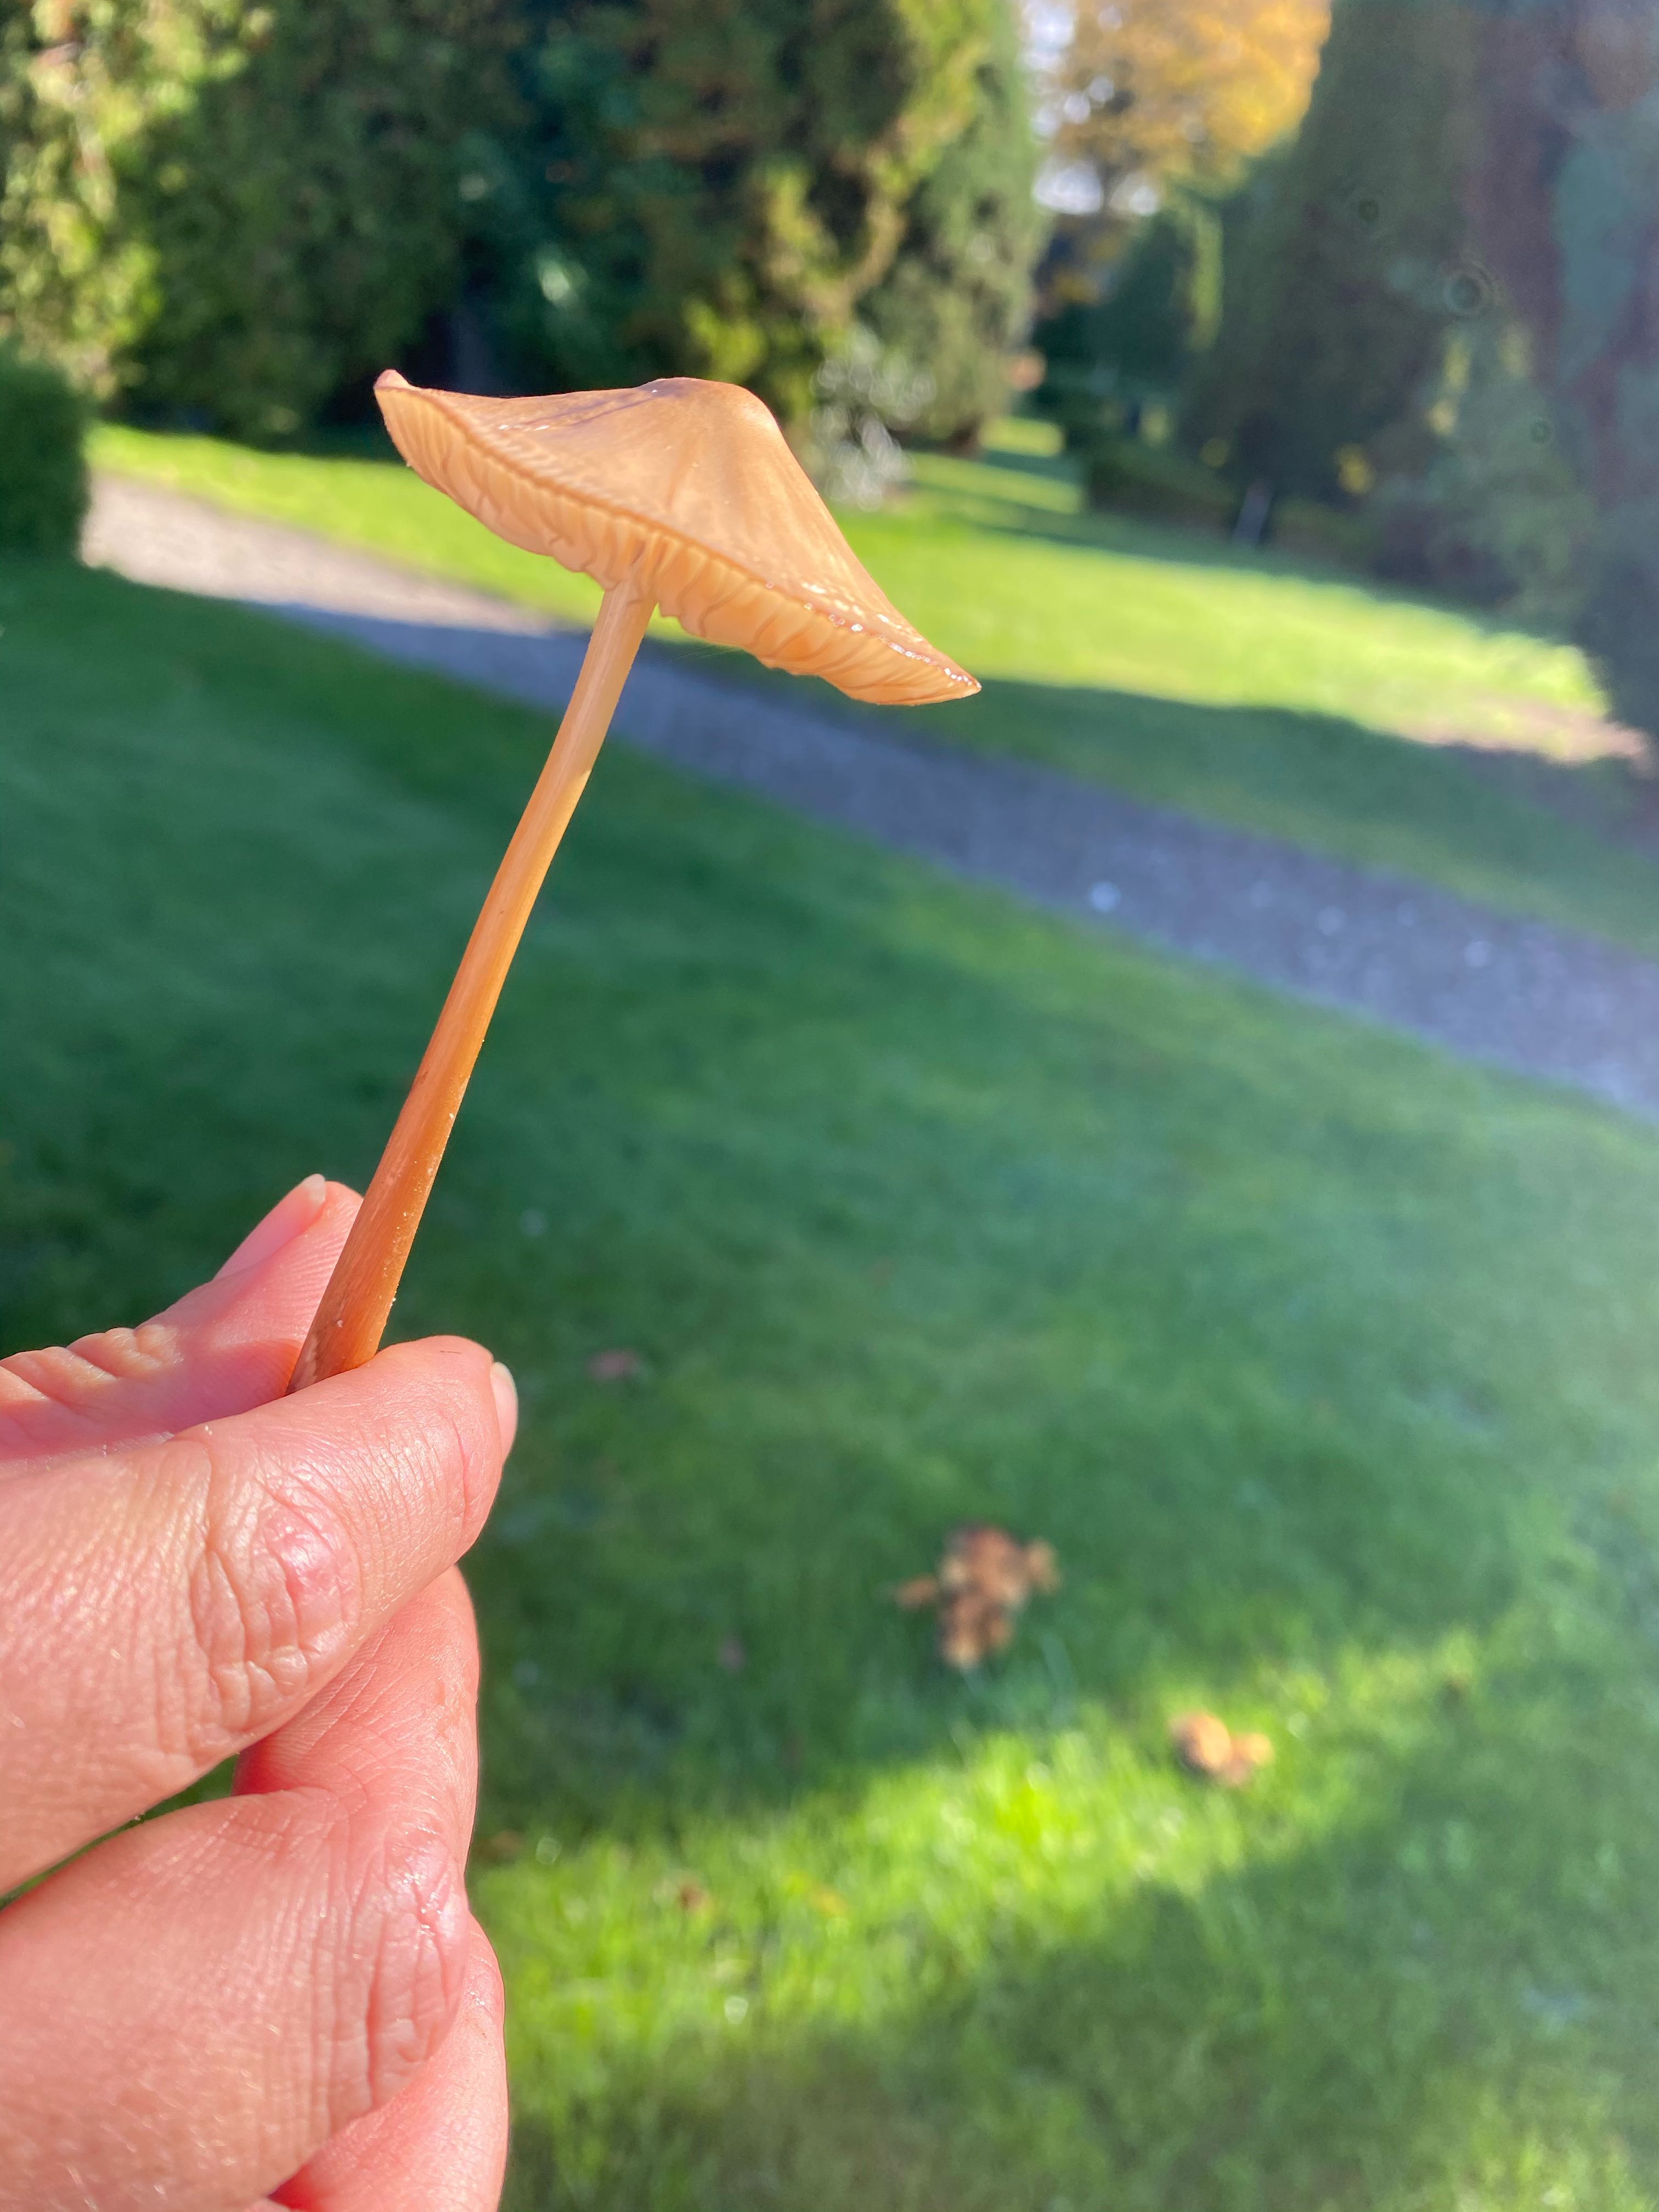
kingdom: Fungi
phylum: Basidiomycota
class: Agaricomycetes
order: Agaricales
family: Physalacriaceae
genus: Hymenopellis
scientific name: Hymenopellis radicata
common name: almindelig pælerodshat
